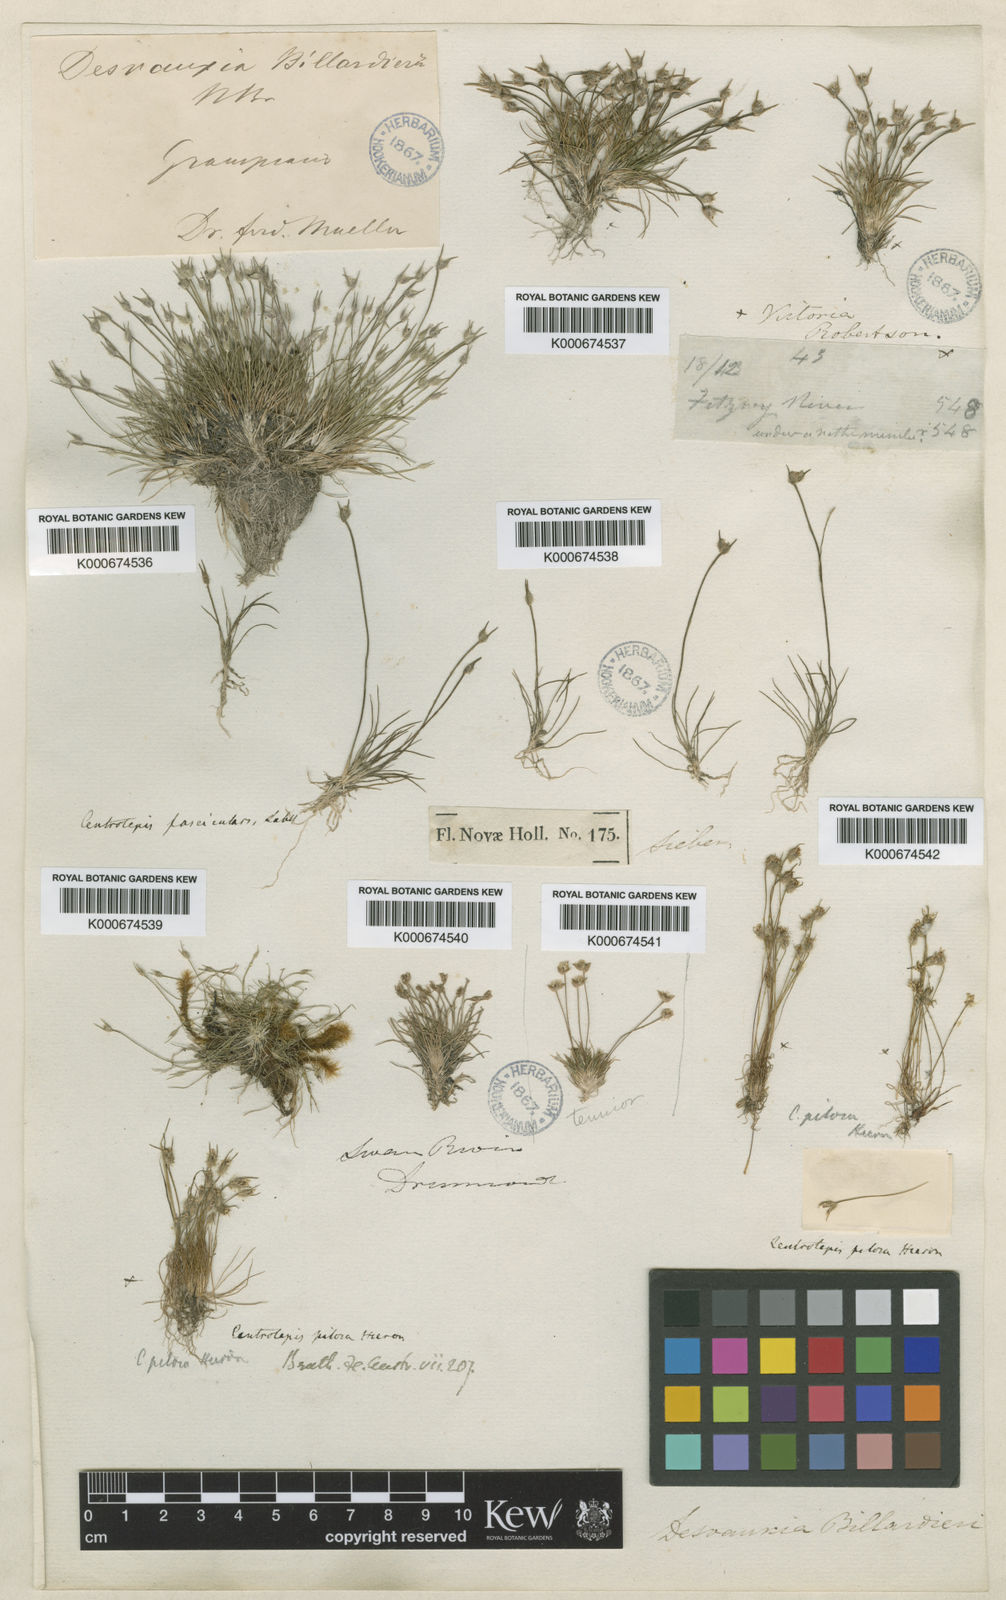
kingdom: Plantae
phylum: Tracheophyta
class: Liliopsida
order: Poales
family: Restionaceae
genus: Centrolepis
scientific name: Centrolepis pilosa
